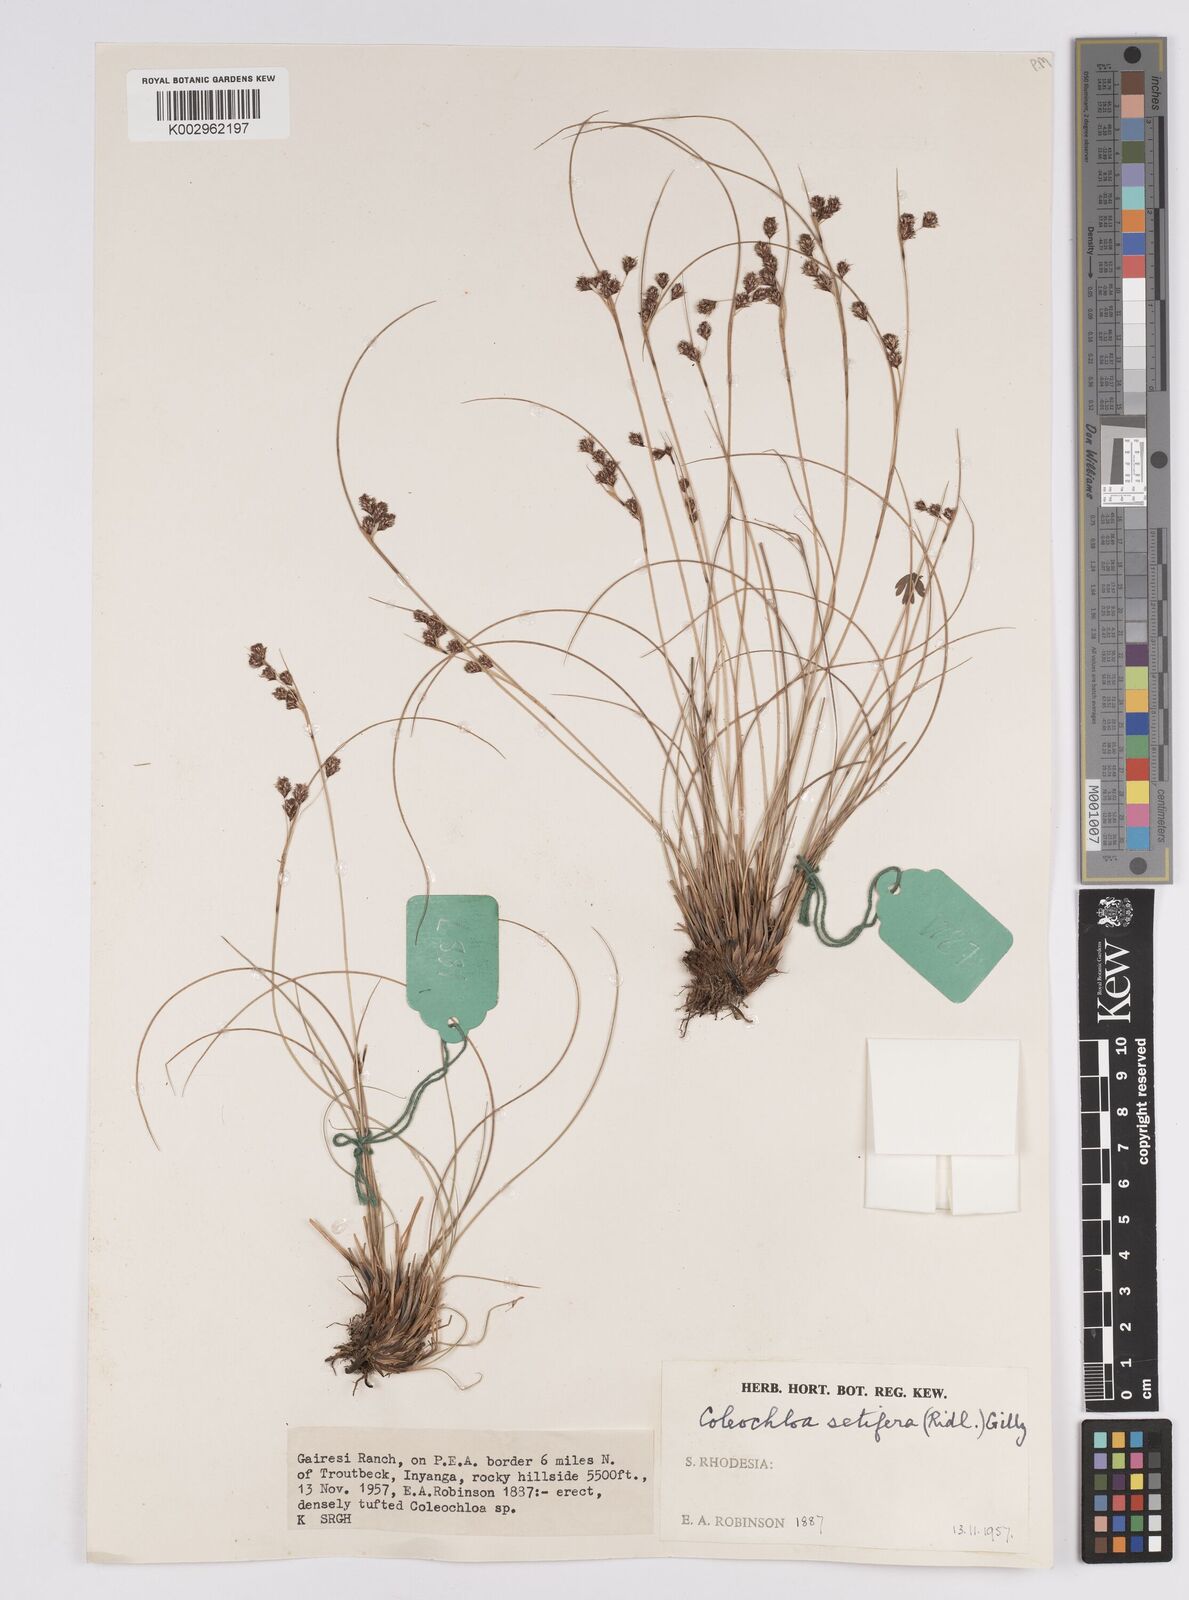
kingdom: Plantae
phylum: Tracheophyta
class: Liliopsida
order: Poales
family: Cyperaceae
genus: Coleochloa
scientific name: Coleochloa setifera
